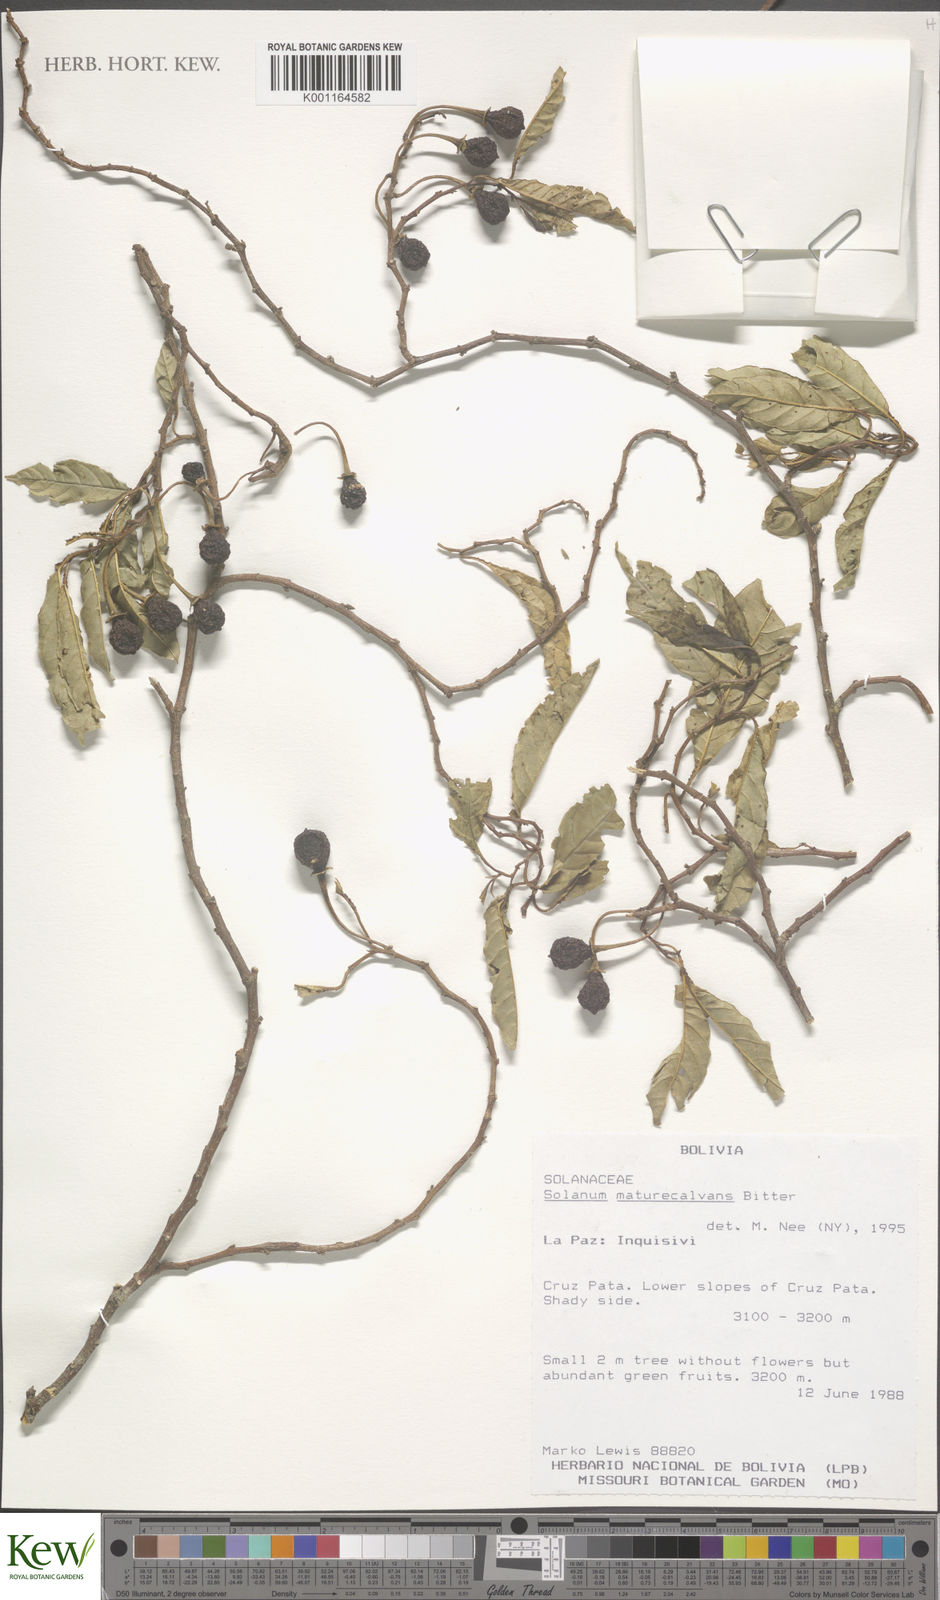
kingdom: Plantae
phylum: Tracheophyta
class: Magnoliopsida
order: Solanales
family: Solanaceae
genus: Solanum
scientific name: Solanum maturecalvans
